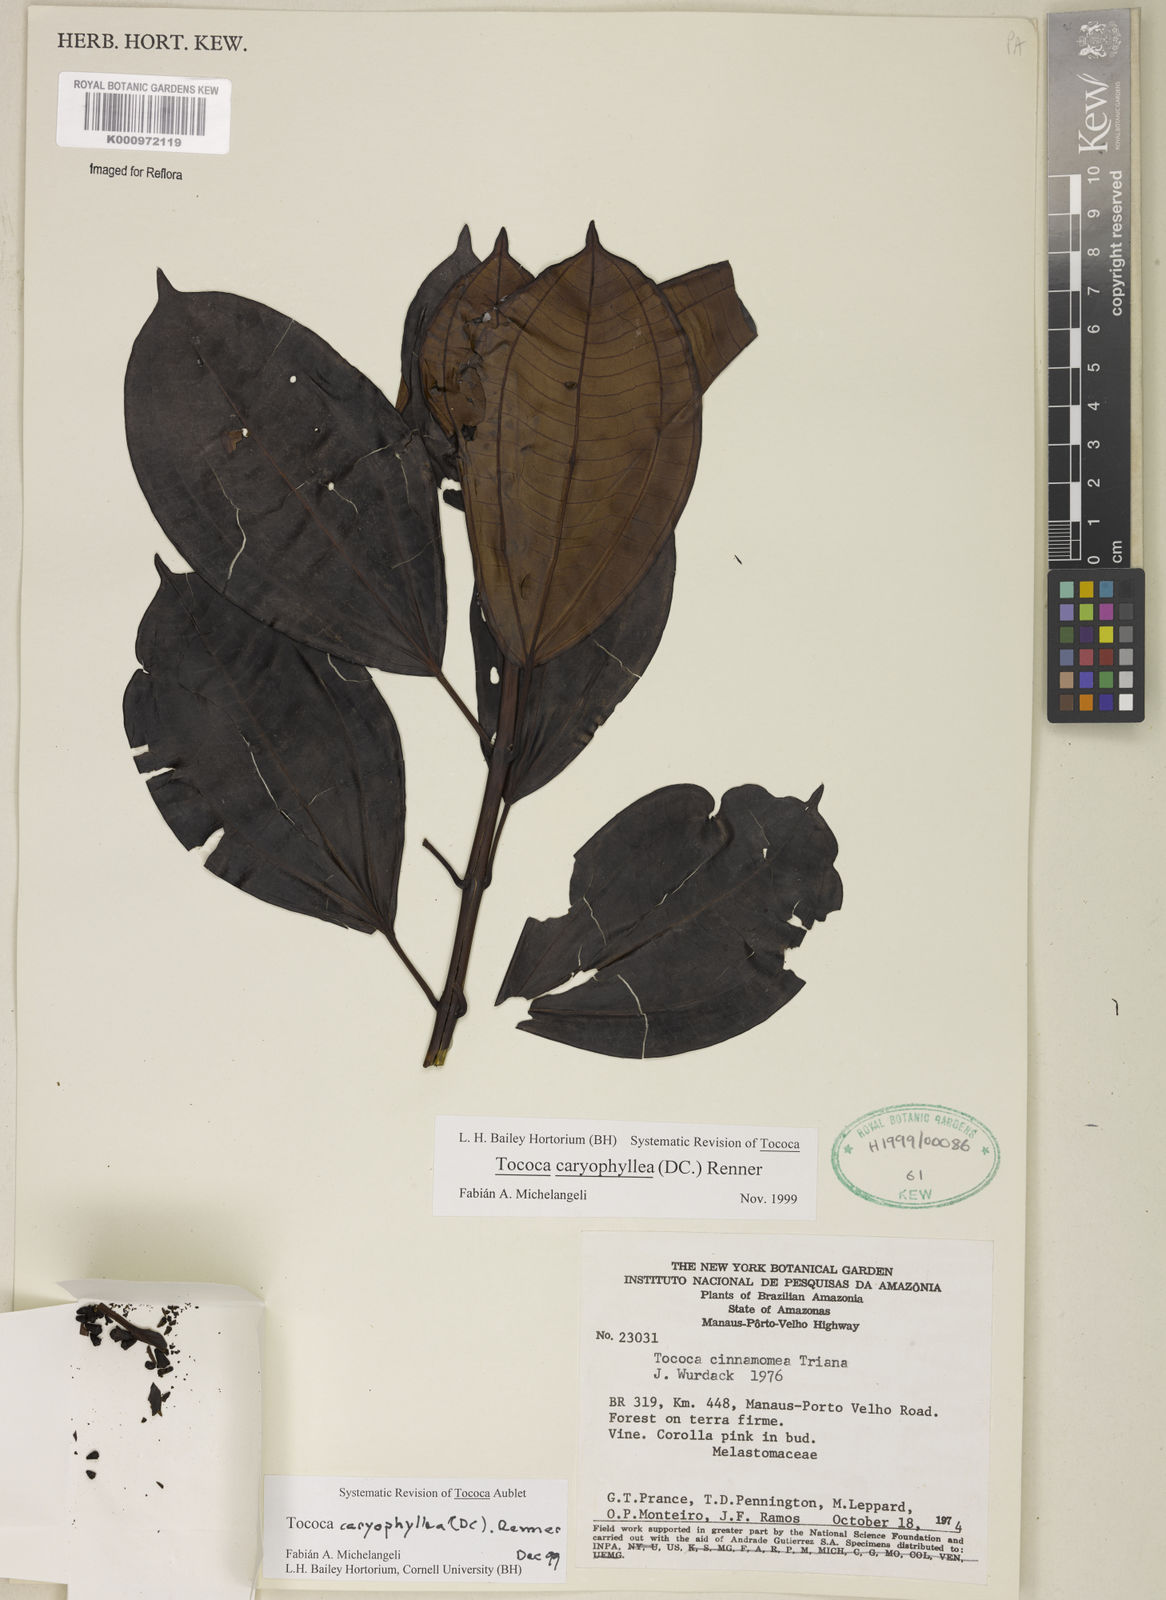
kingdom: Plantae
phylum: Tracheophyta
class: Magnoliopsida
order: Myrtales
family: Melastomataceae
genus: Miconia
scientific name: Miconia caryophyllacea
